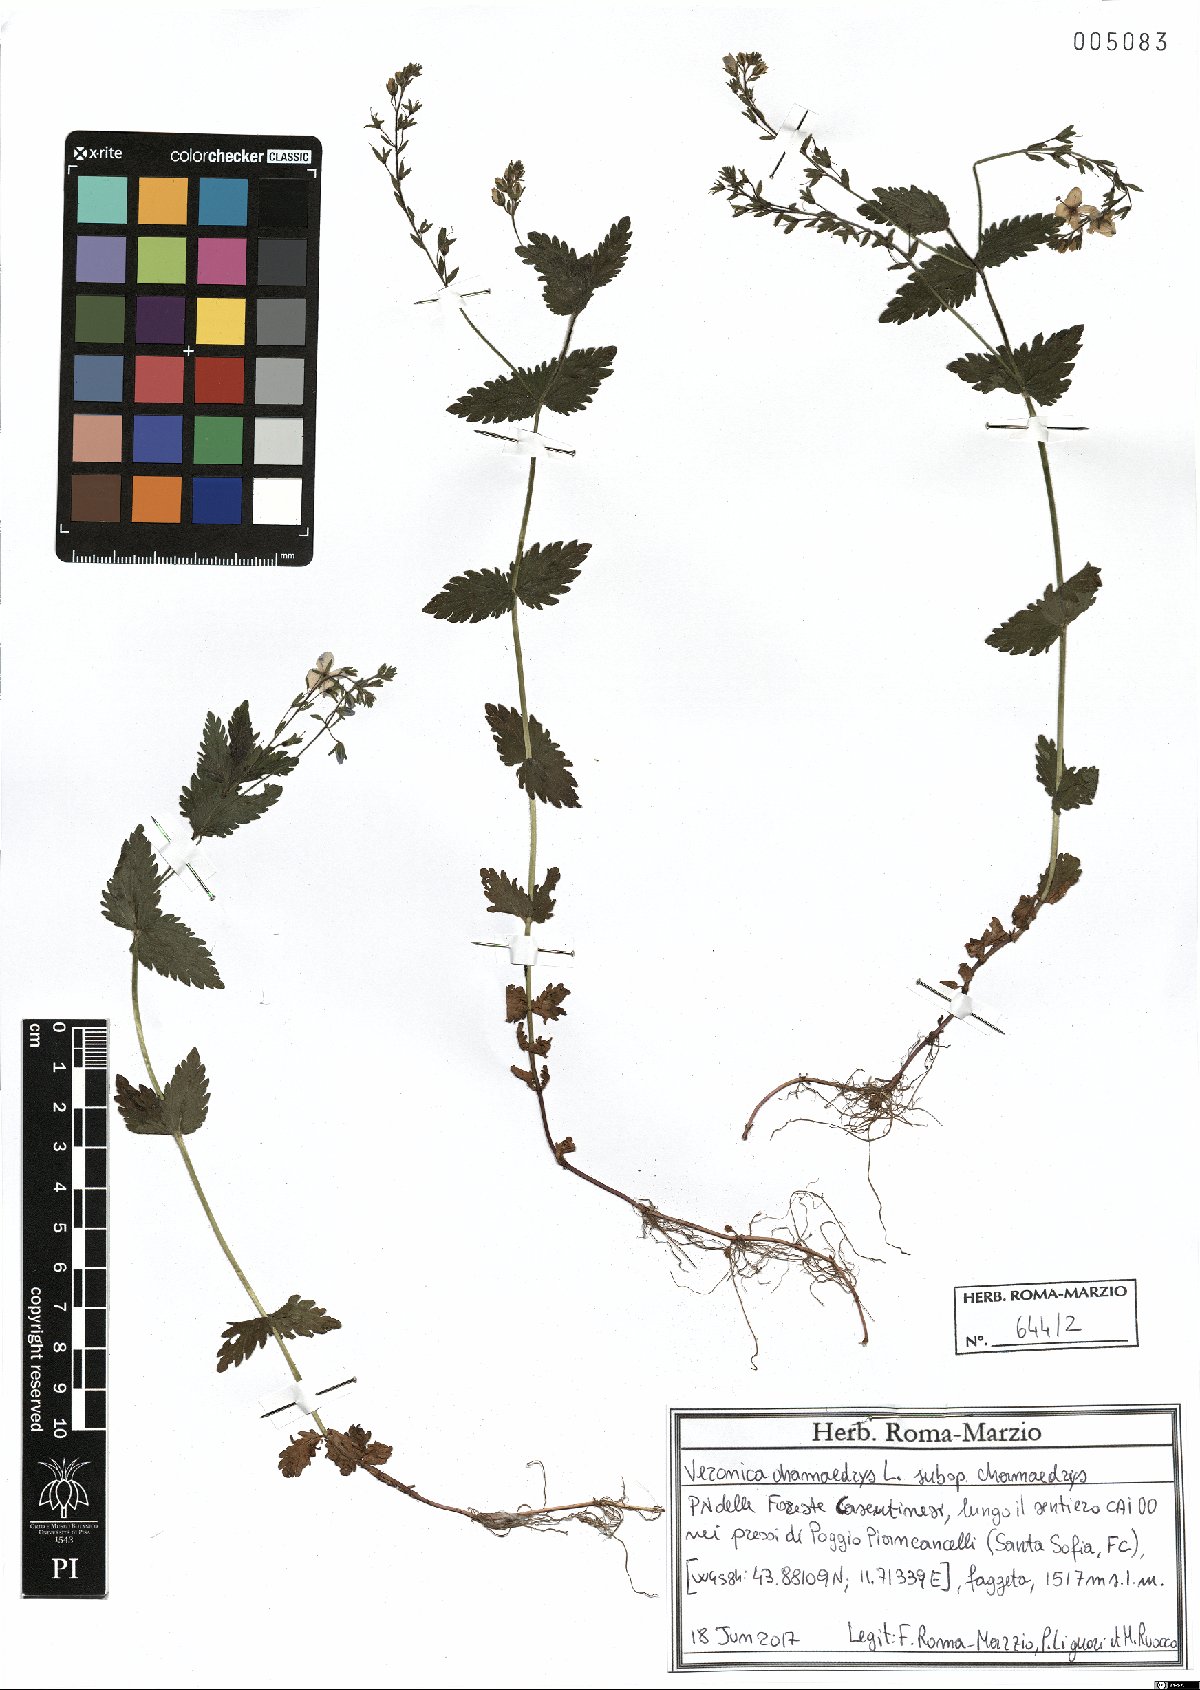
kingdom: Plantae
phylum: Tracheophyta
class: Magnoliopsida
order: Lamiales
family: Plantaginaceae
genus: Veronica
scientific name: Veronica chamaedrys
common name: Germander speedwell
